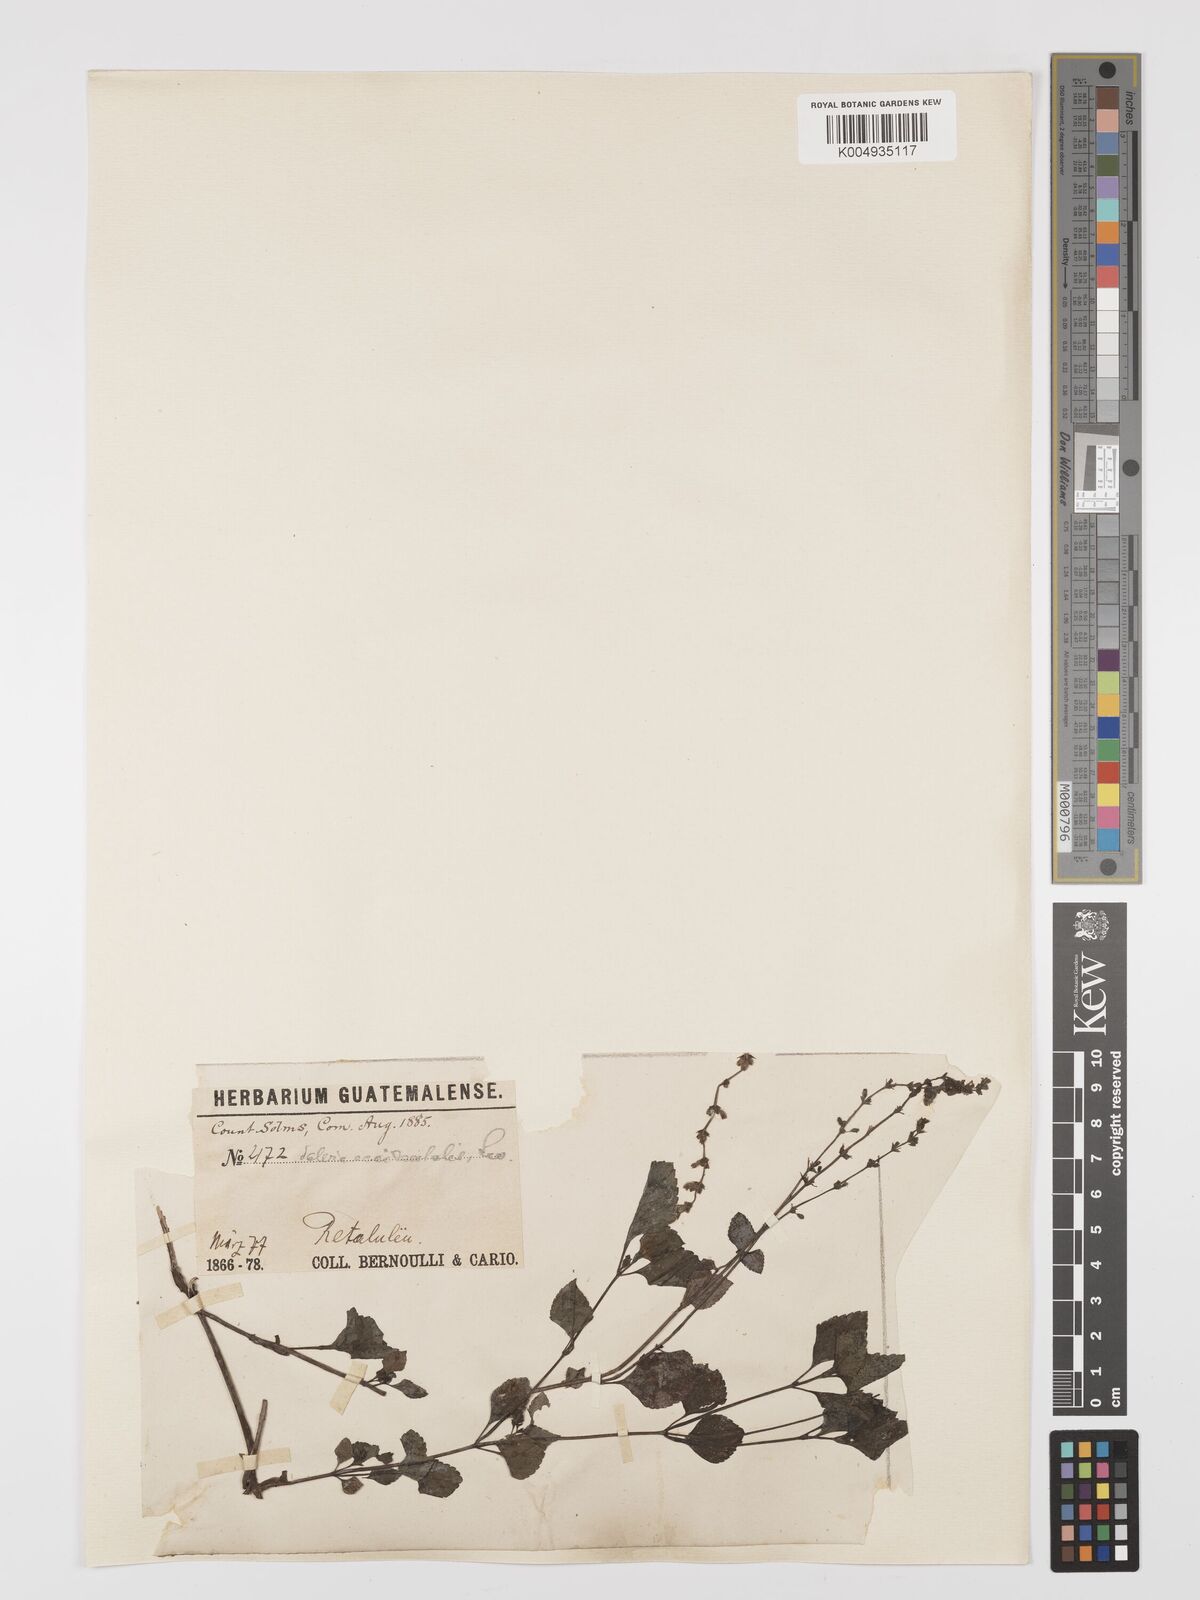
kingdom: Plantae
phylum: Tracheophyta
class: Magnoliopsida
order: Lamiales
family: Lamiaceae
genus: Salvia
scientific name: Salvia occidentalis
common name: West indian sage
